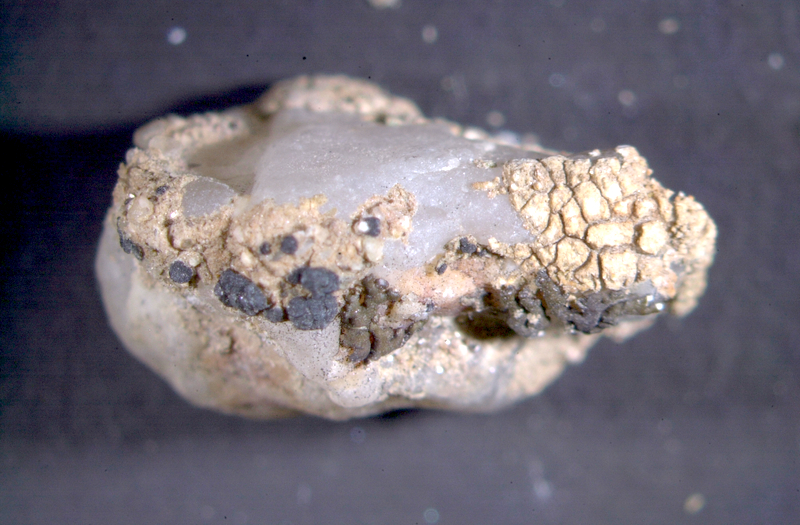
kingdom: Fungi
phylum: Ascomycota
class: Lecanoromycetes
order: Caliciales
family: Caliciaceae
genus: Buellia
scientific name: Buellia
